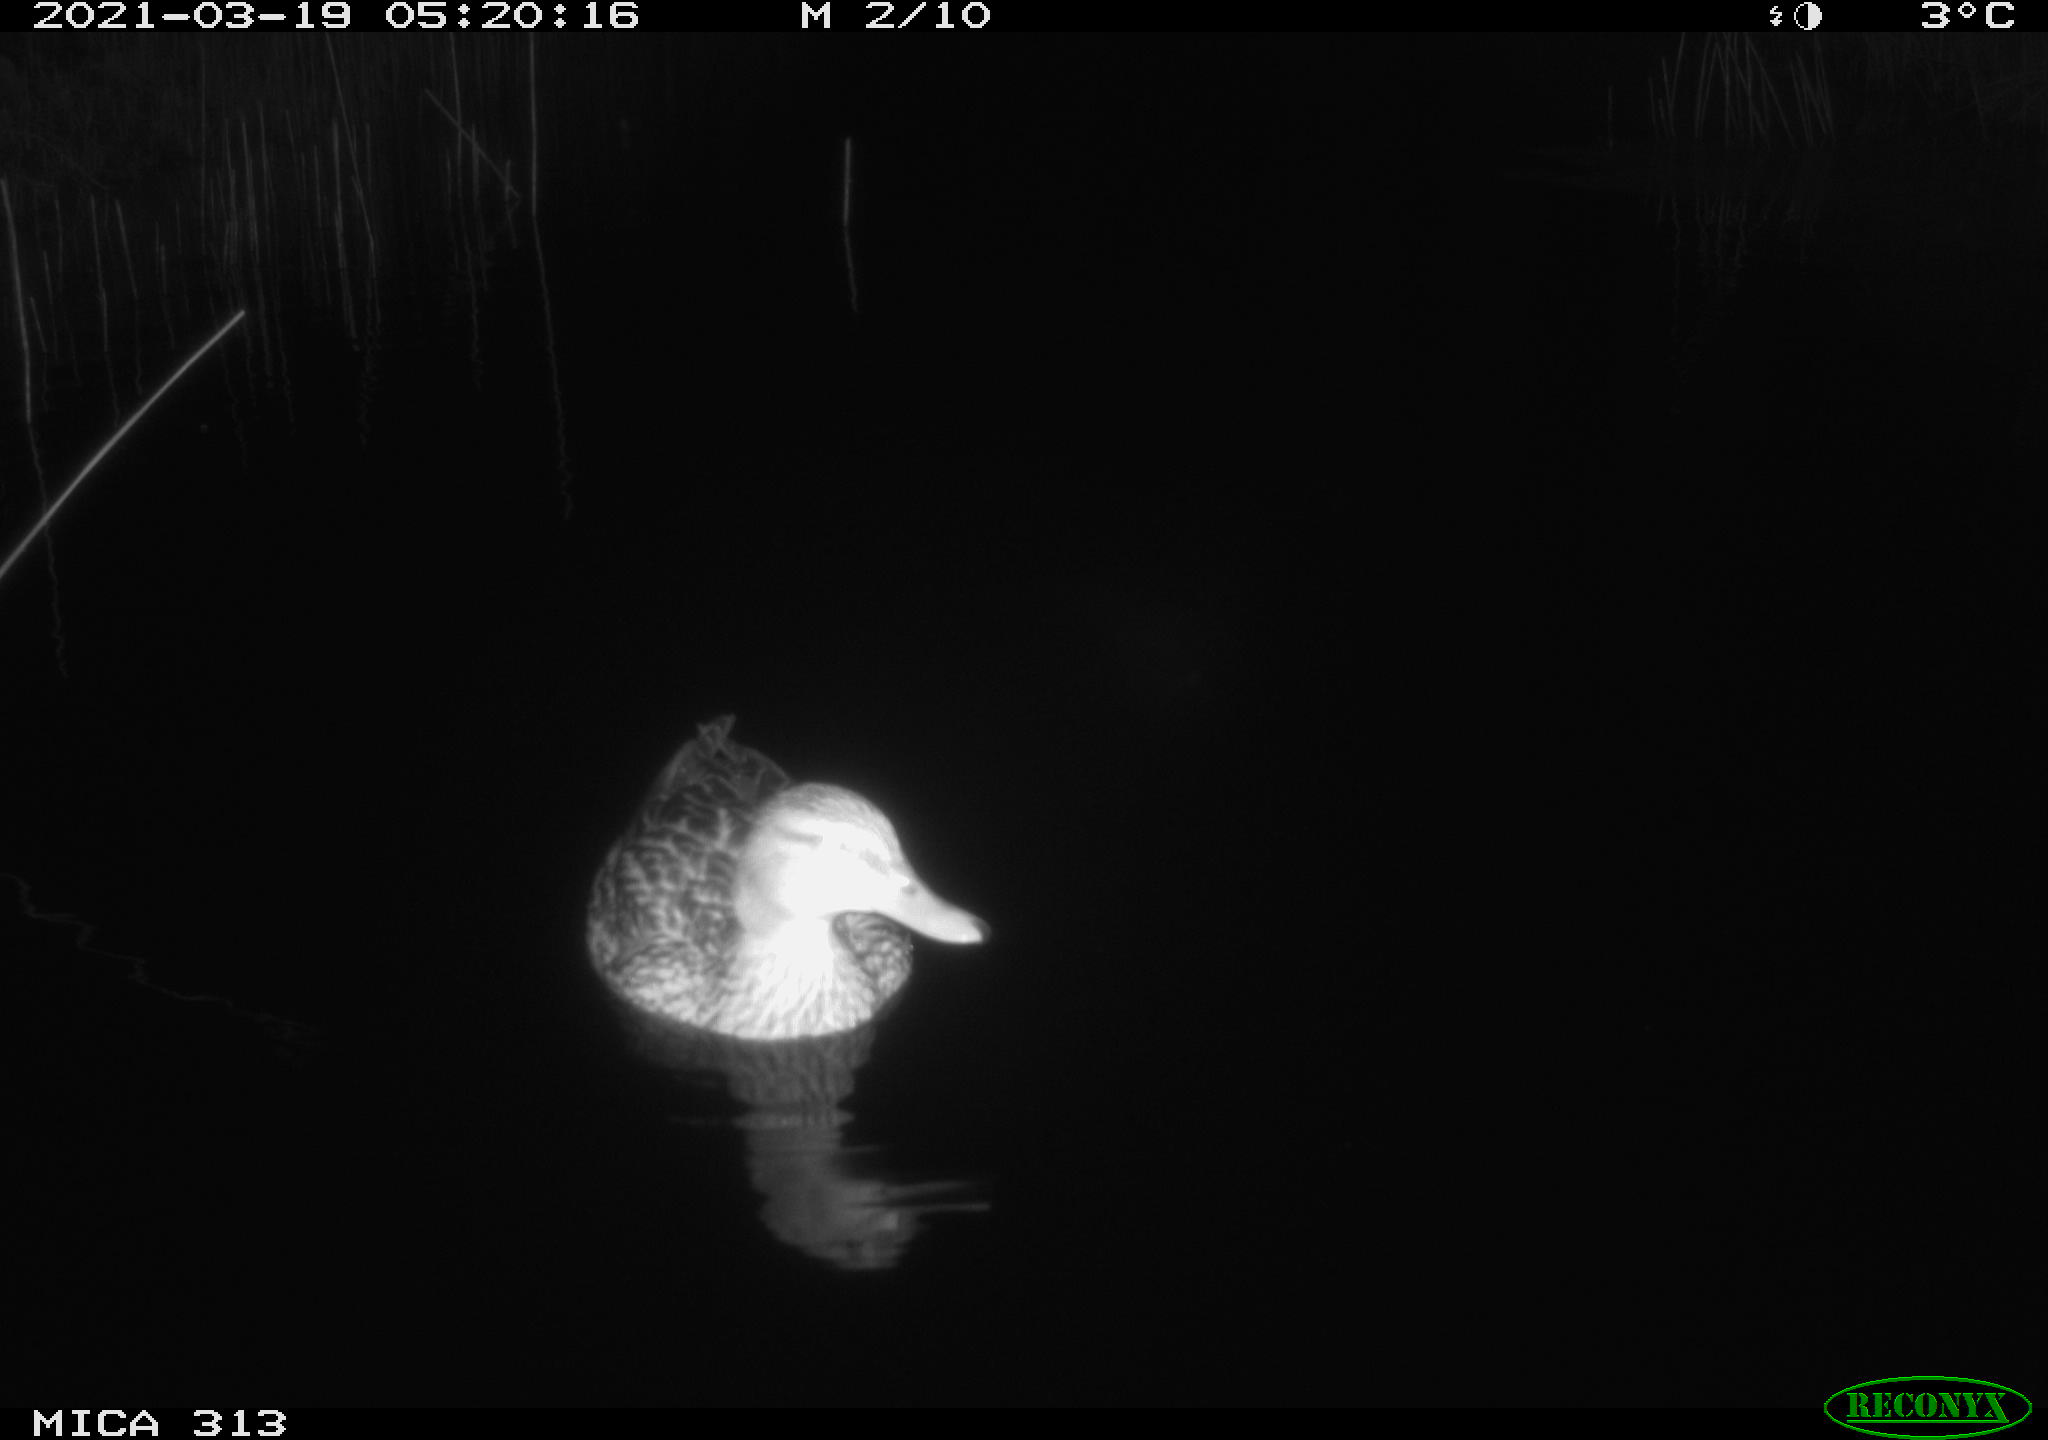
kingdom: Animalia
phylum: Chordata
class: Aves
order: Anseriformes
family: Anatidae
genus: Mareca
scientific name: Mareca strepera
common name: Gadwall
